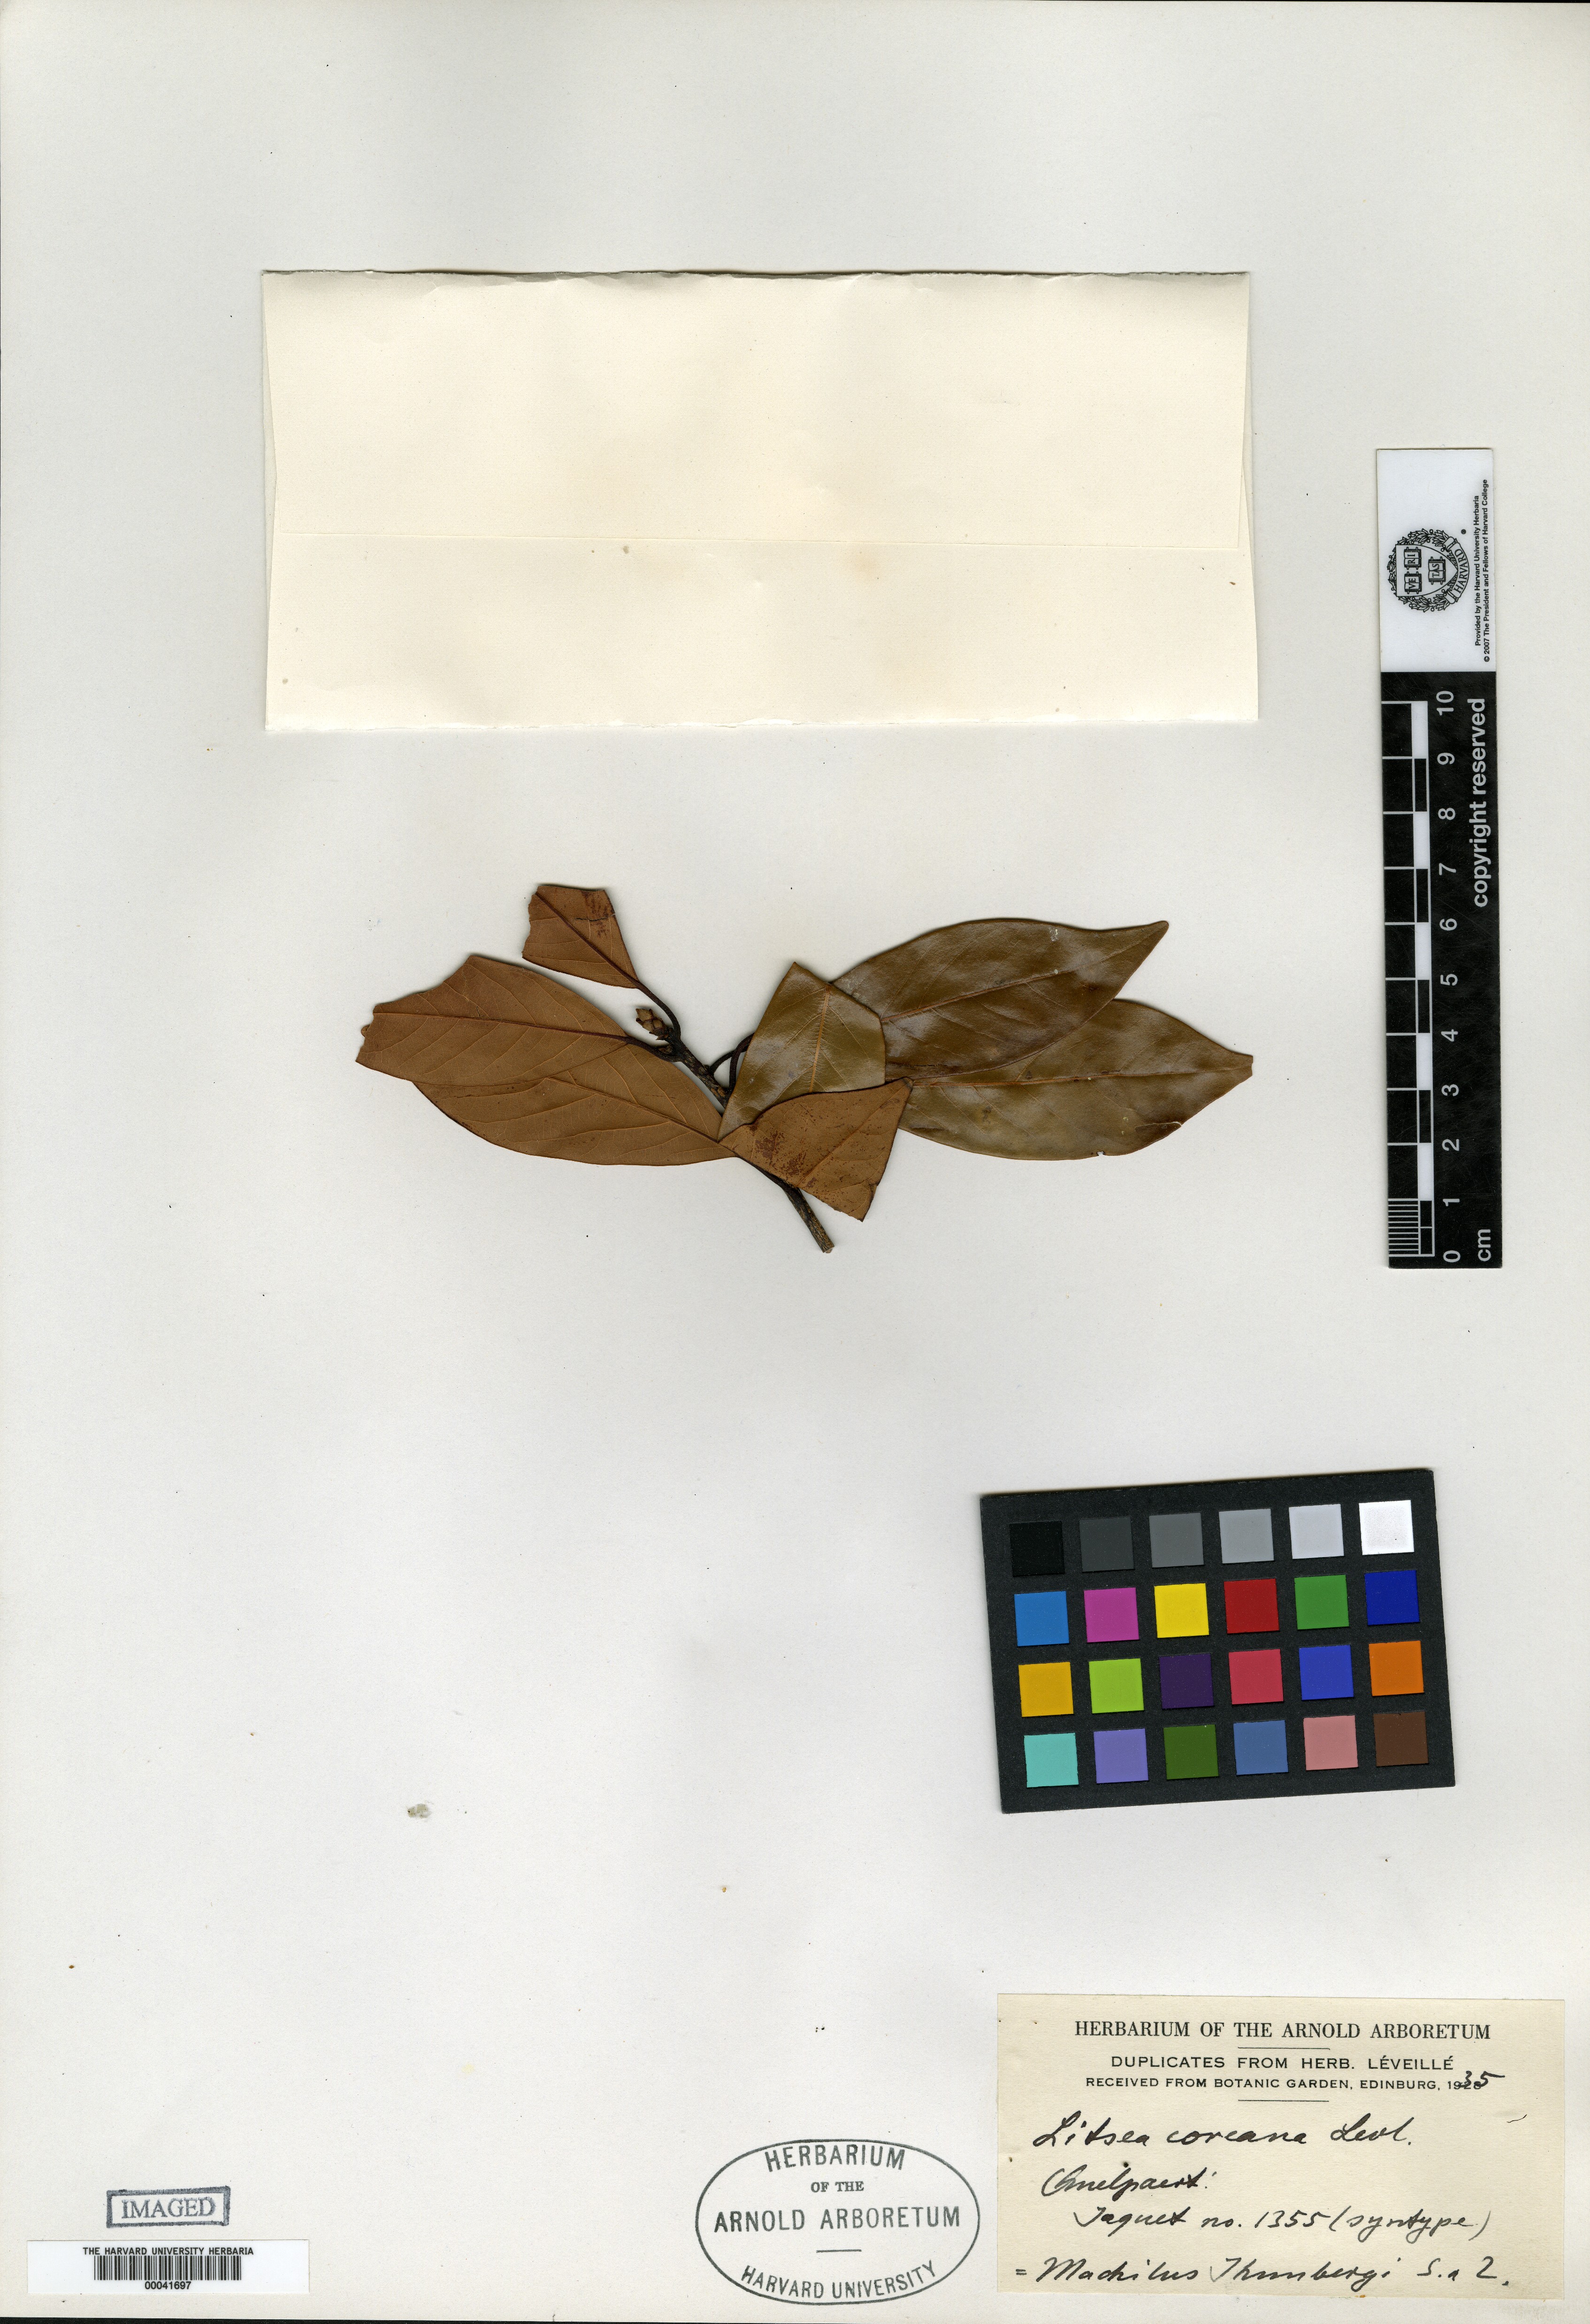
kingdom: Plantae
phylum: Tracheophyta
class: Magnoliopsida
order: Laurales
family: Lauraceae
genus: Litsea
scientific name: Litsea coreana
